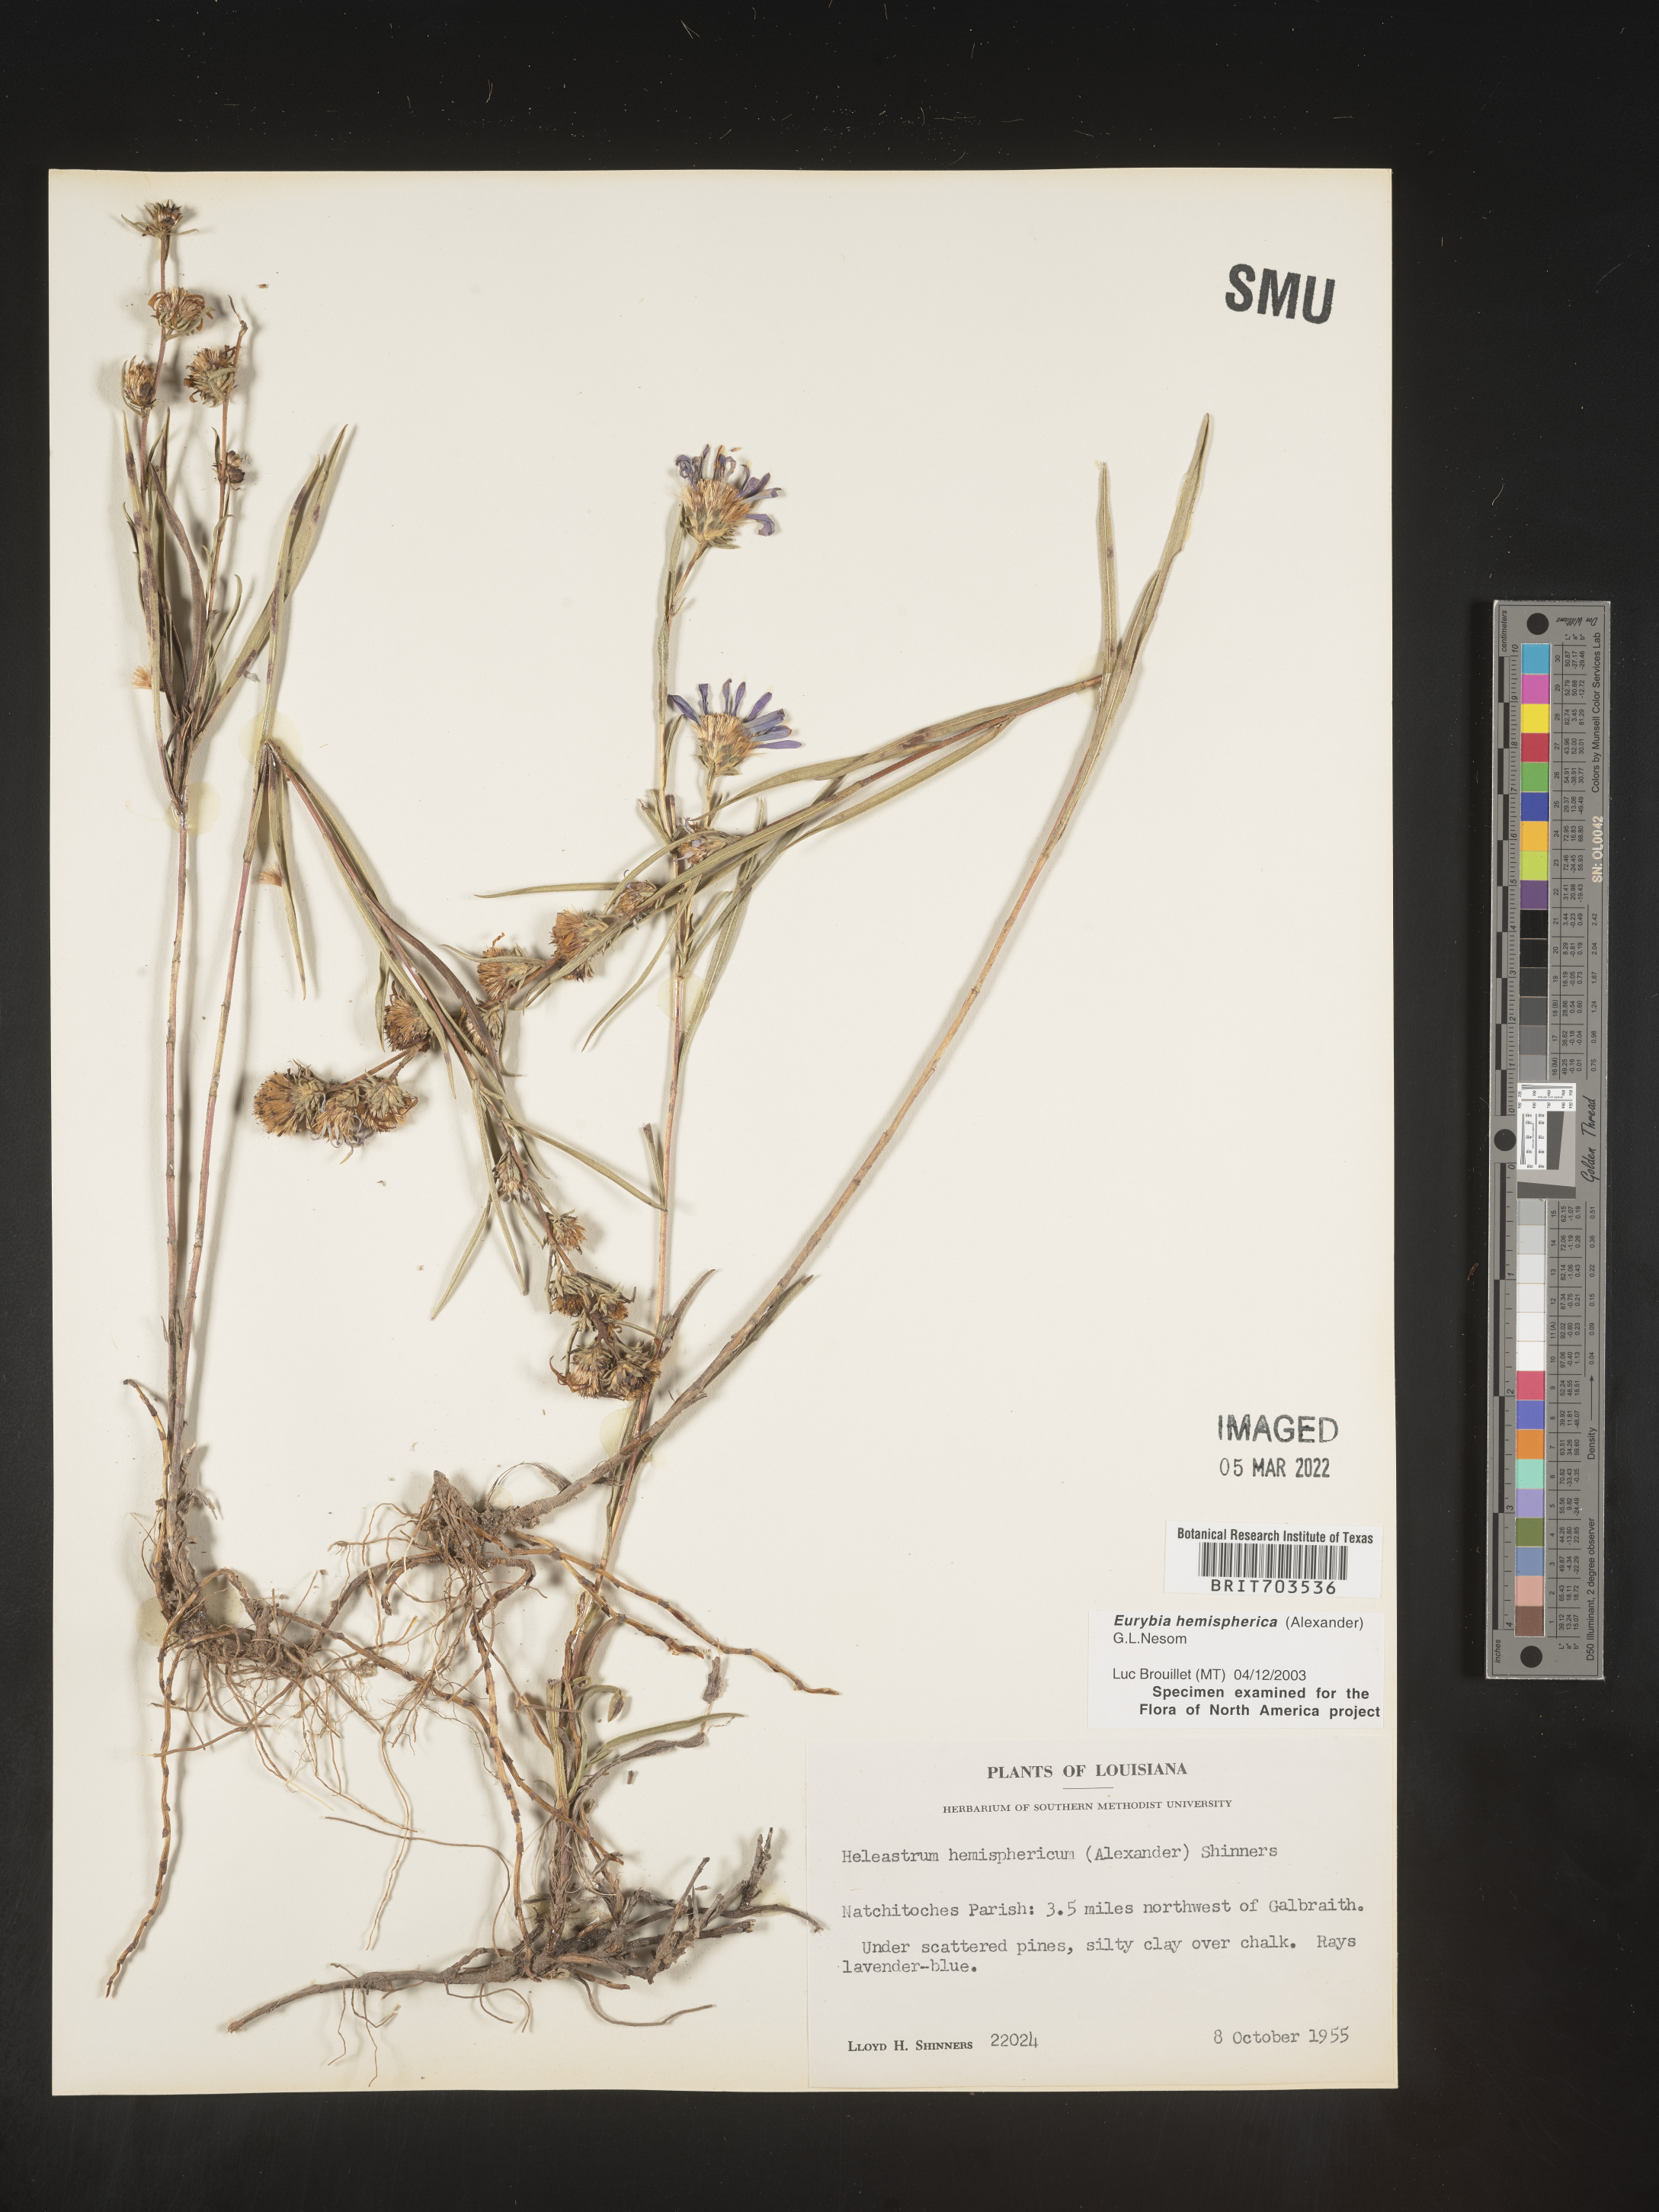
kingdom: Plantae
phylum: Tracheophyta
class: Magnoliopsida
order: Asterales
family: Asteraceae
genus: Eurybia
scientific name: Eurybia hemispherica
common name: Showy aster
